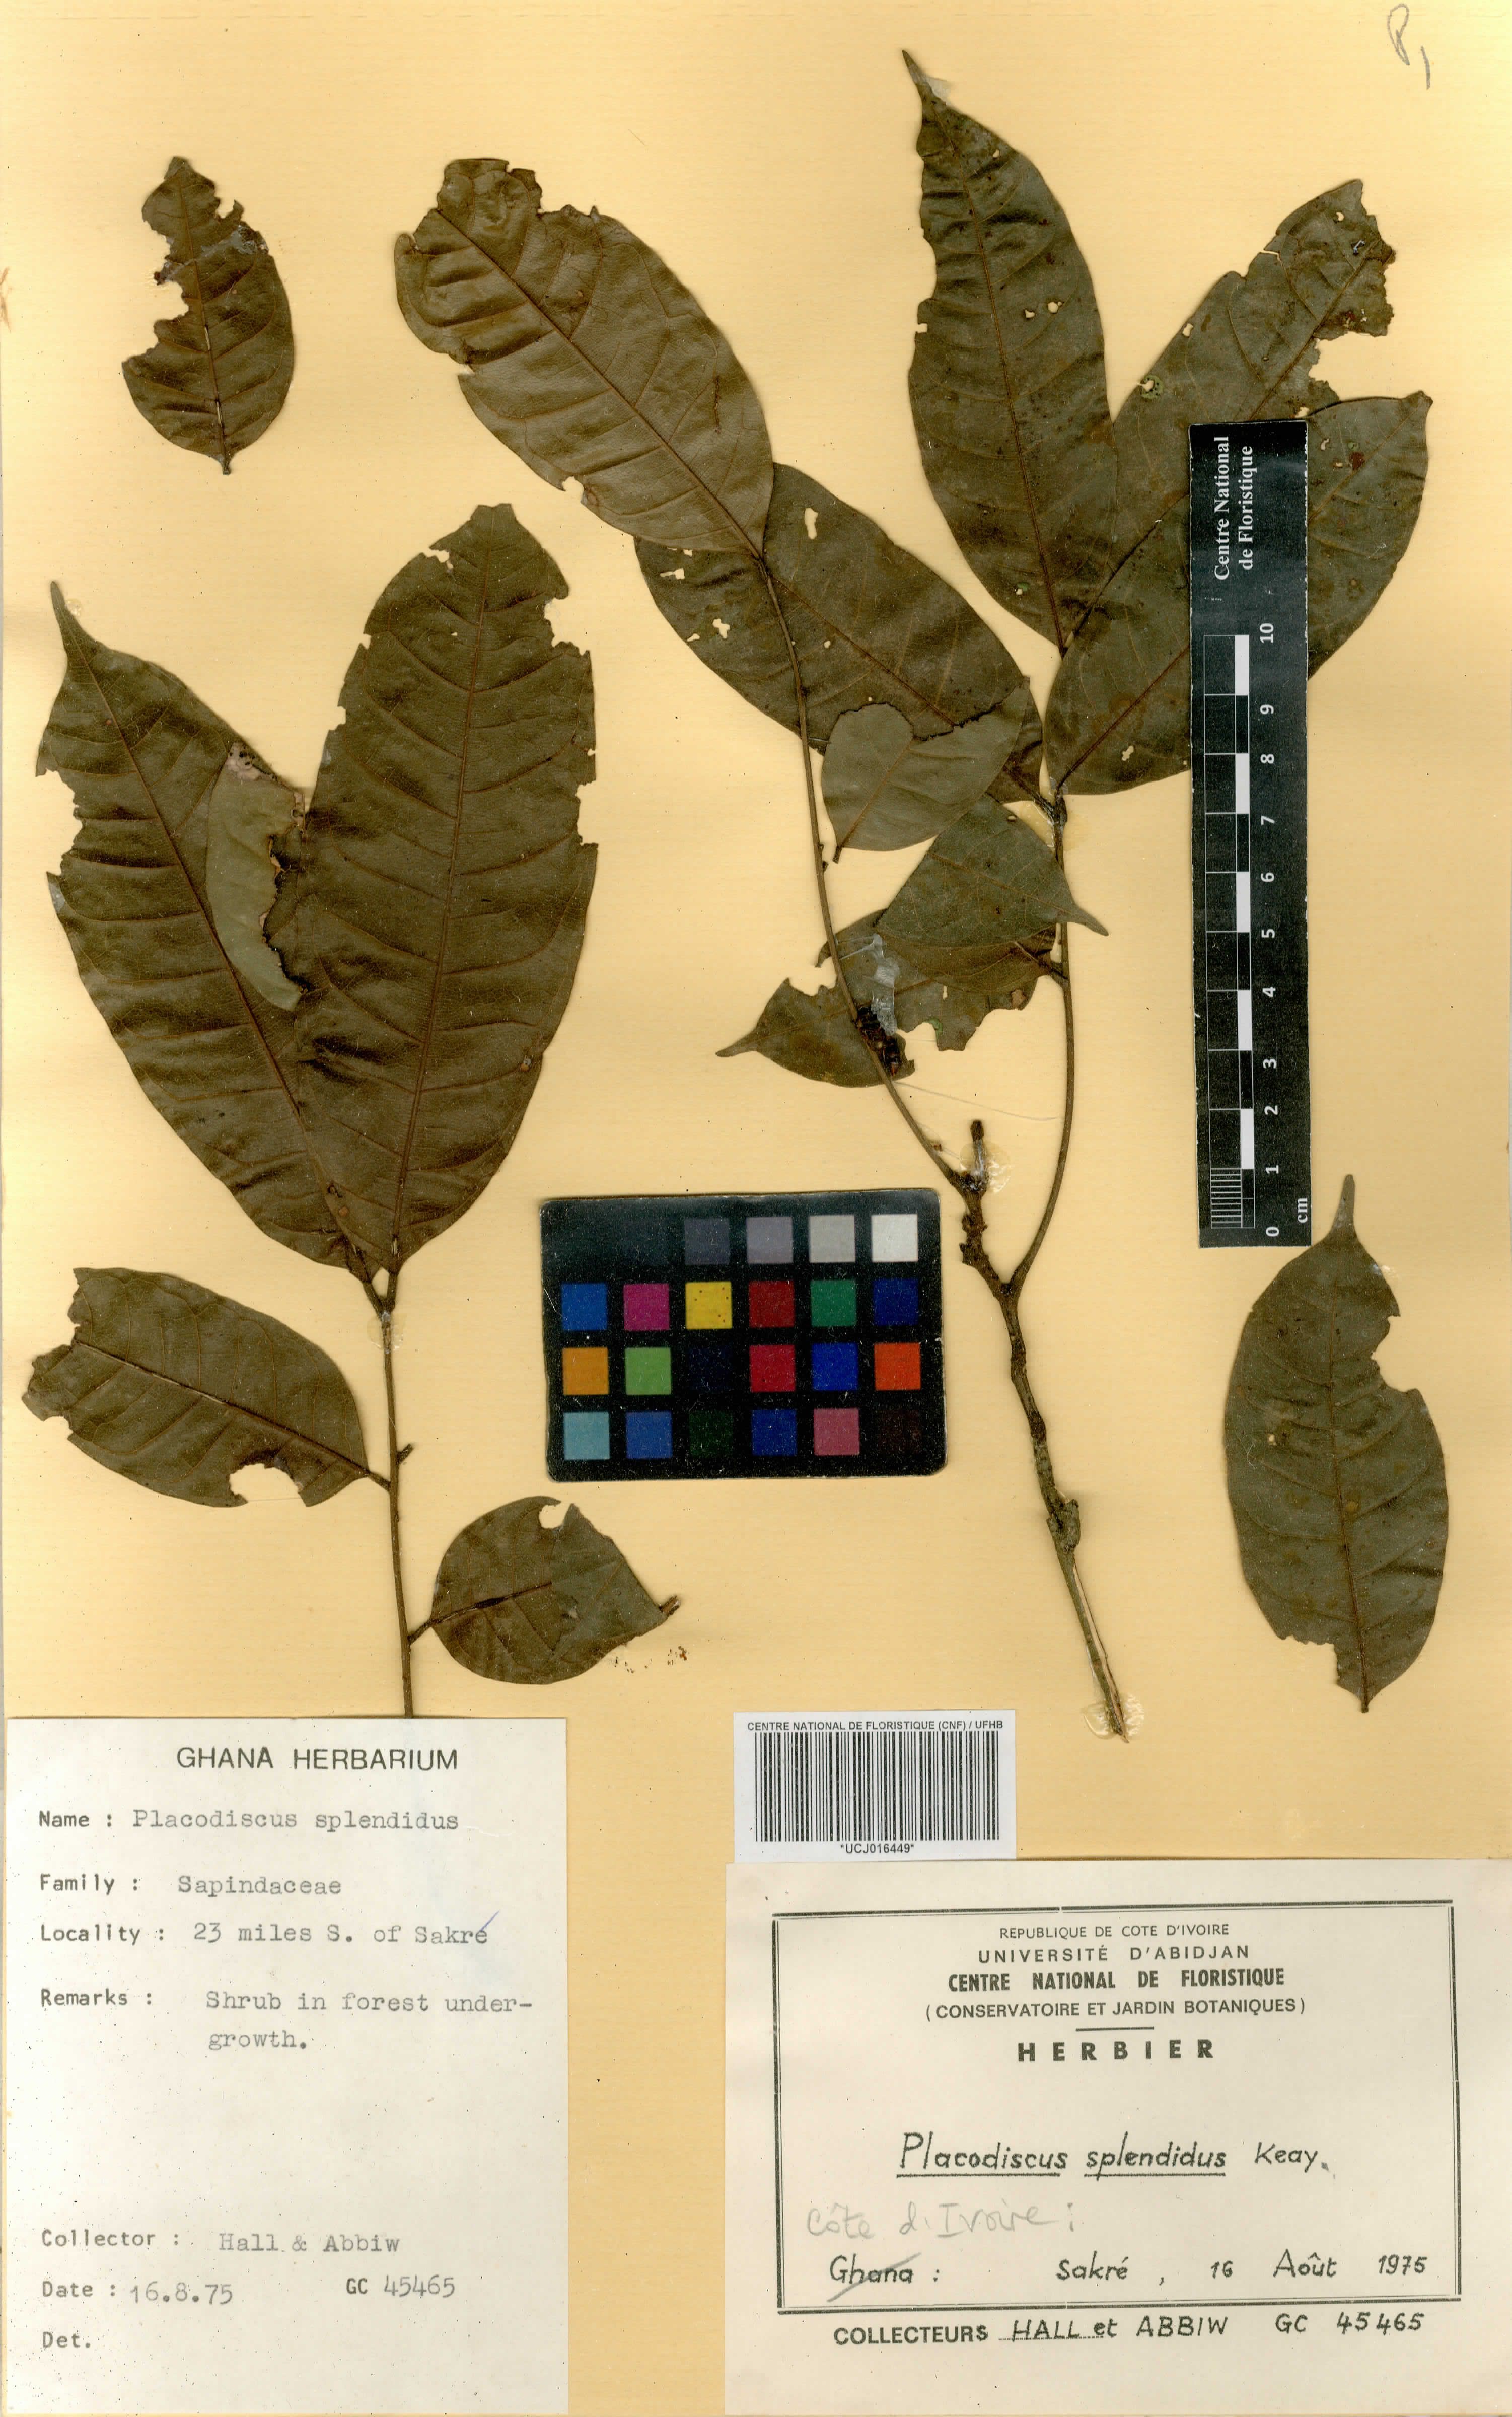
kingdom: Plantae
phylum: Tracheophyta
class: Magnoliopsida
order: Sapindales
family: Sapindaceae
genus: Placodiscus
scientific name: Placodiscus splendidus
